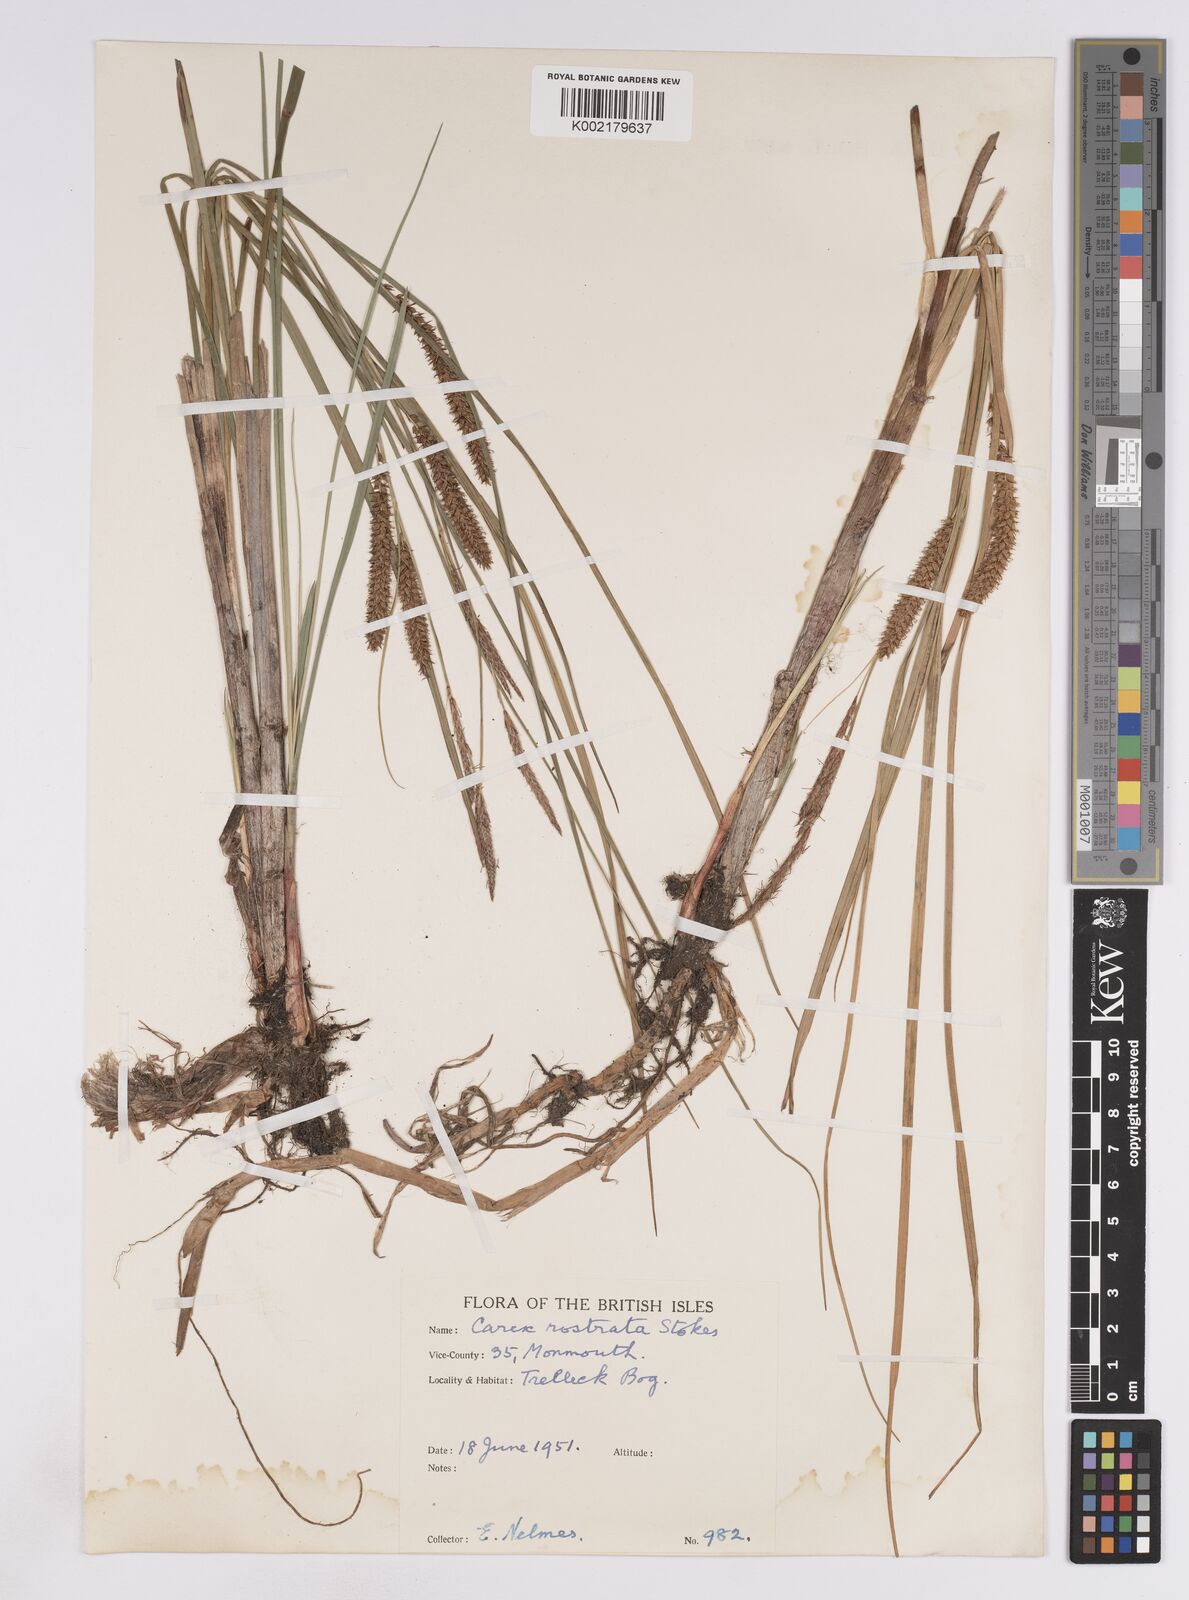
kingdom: Plantae
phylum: Tracheophyta
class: Liliopsida
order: Poales
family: Cyperaceae
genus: Carex
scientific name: Carex rostrata
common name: Bottle sedge
